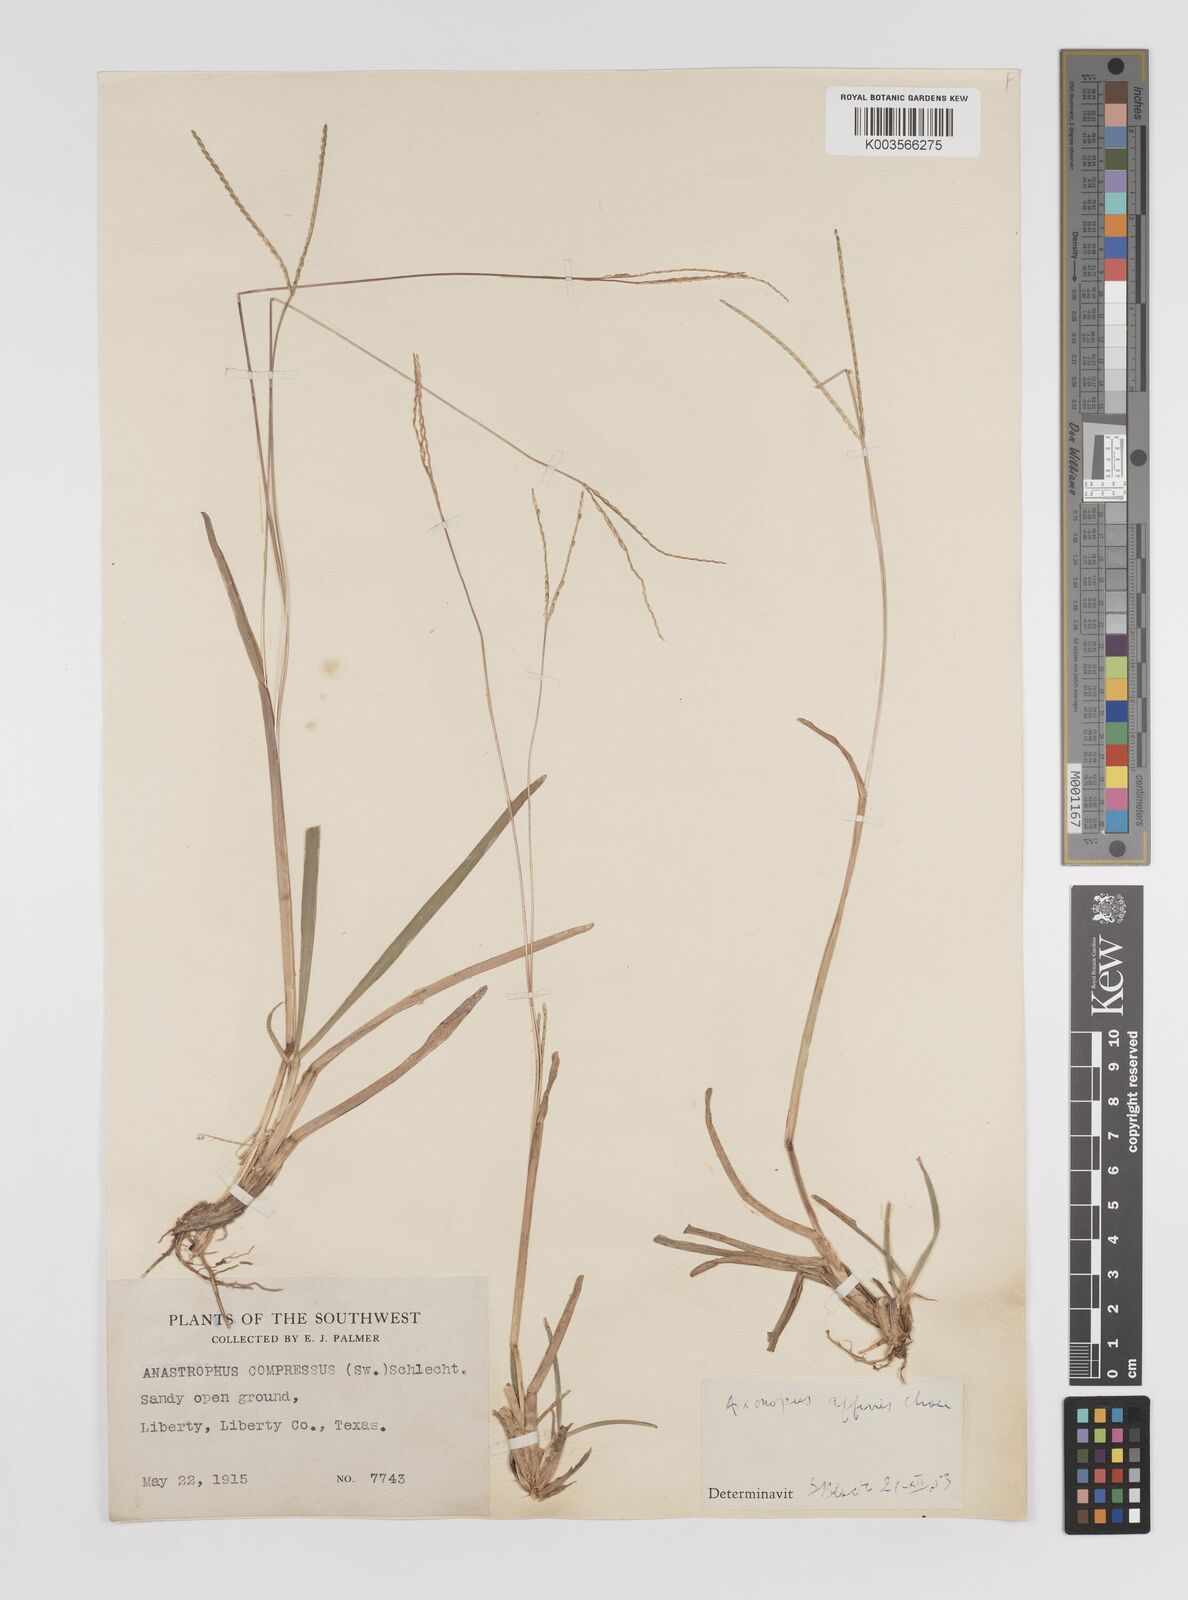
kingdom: Plantae
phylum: Tracheophyta
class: Liliopsida
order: Poales
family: Poaceae
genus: Axonopus
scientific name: Axonopus fissifolius
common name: Common carpetgrass
